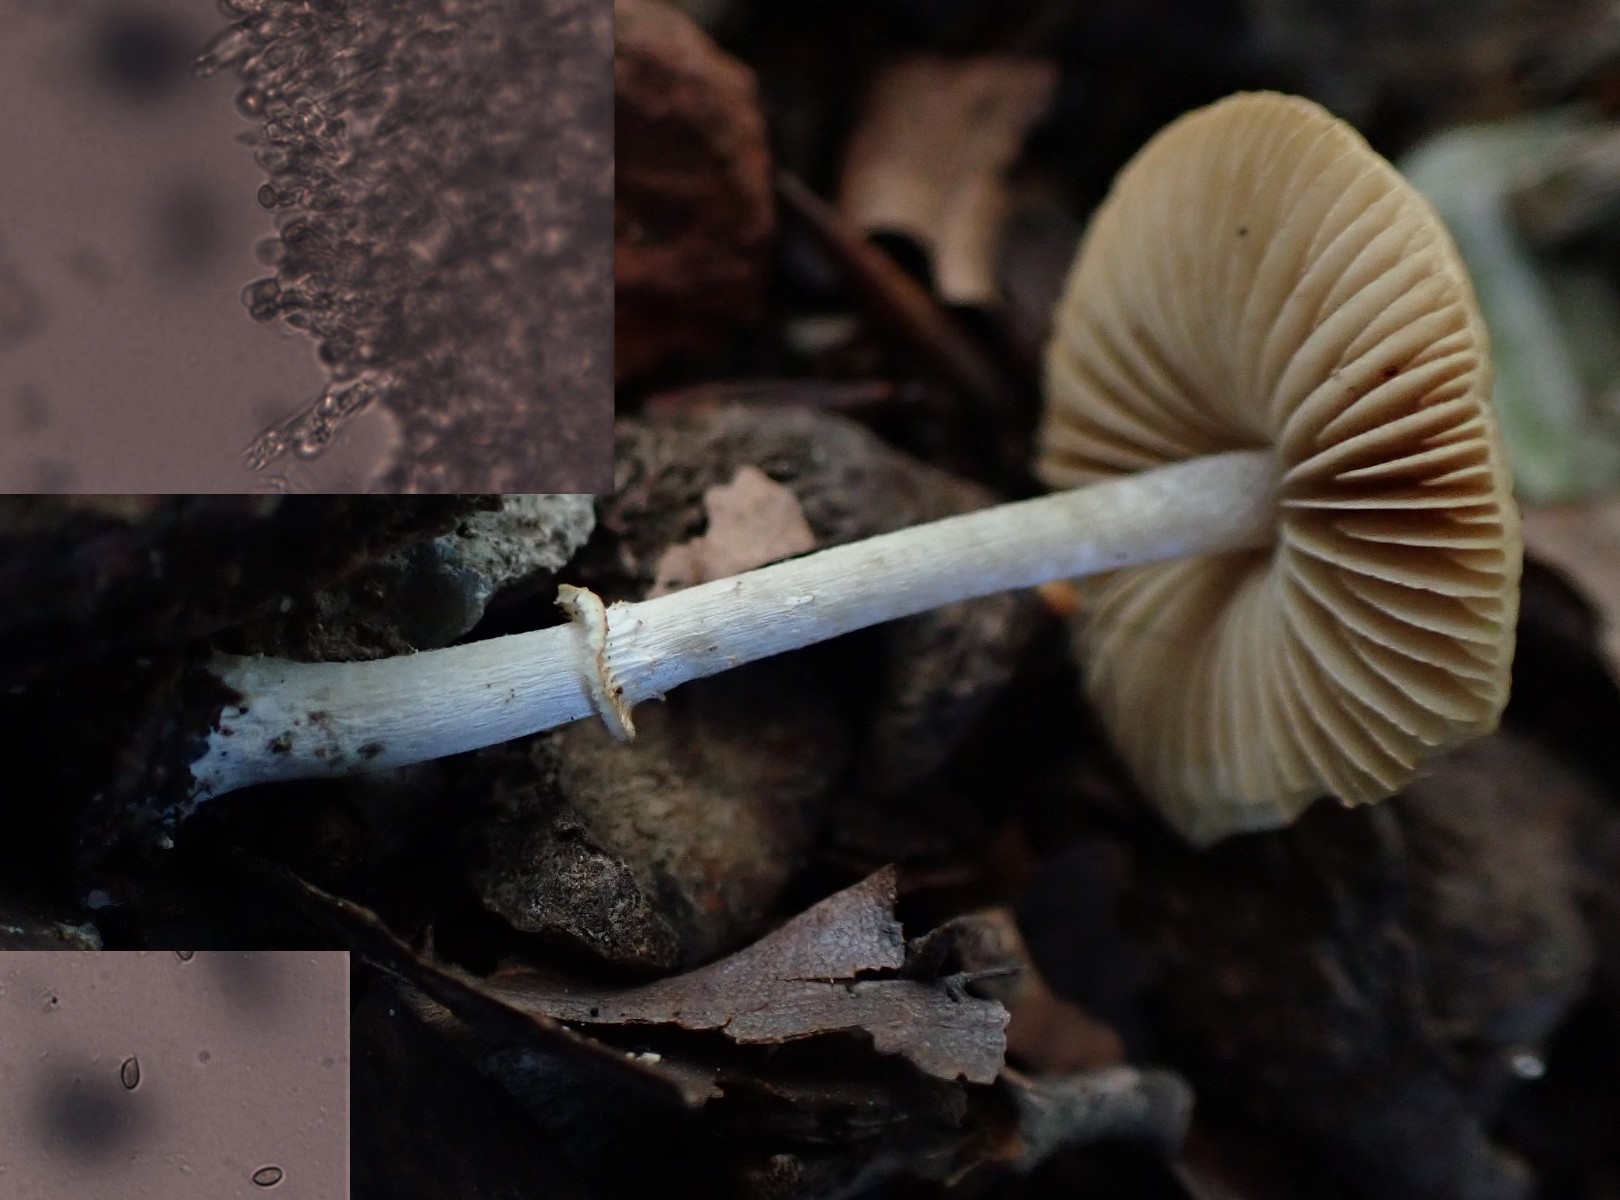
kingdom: Fungi
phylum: Basidiomycota
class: Agaricomycetes
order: Agaricales
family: Bolbitiaceae
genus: Conocybe
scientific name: Conocybe arrhenii
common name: ring-dansehat
